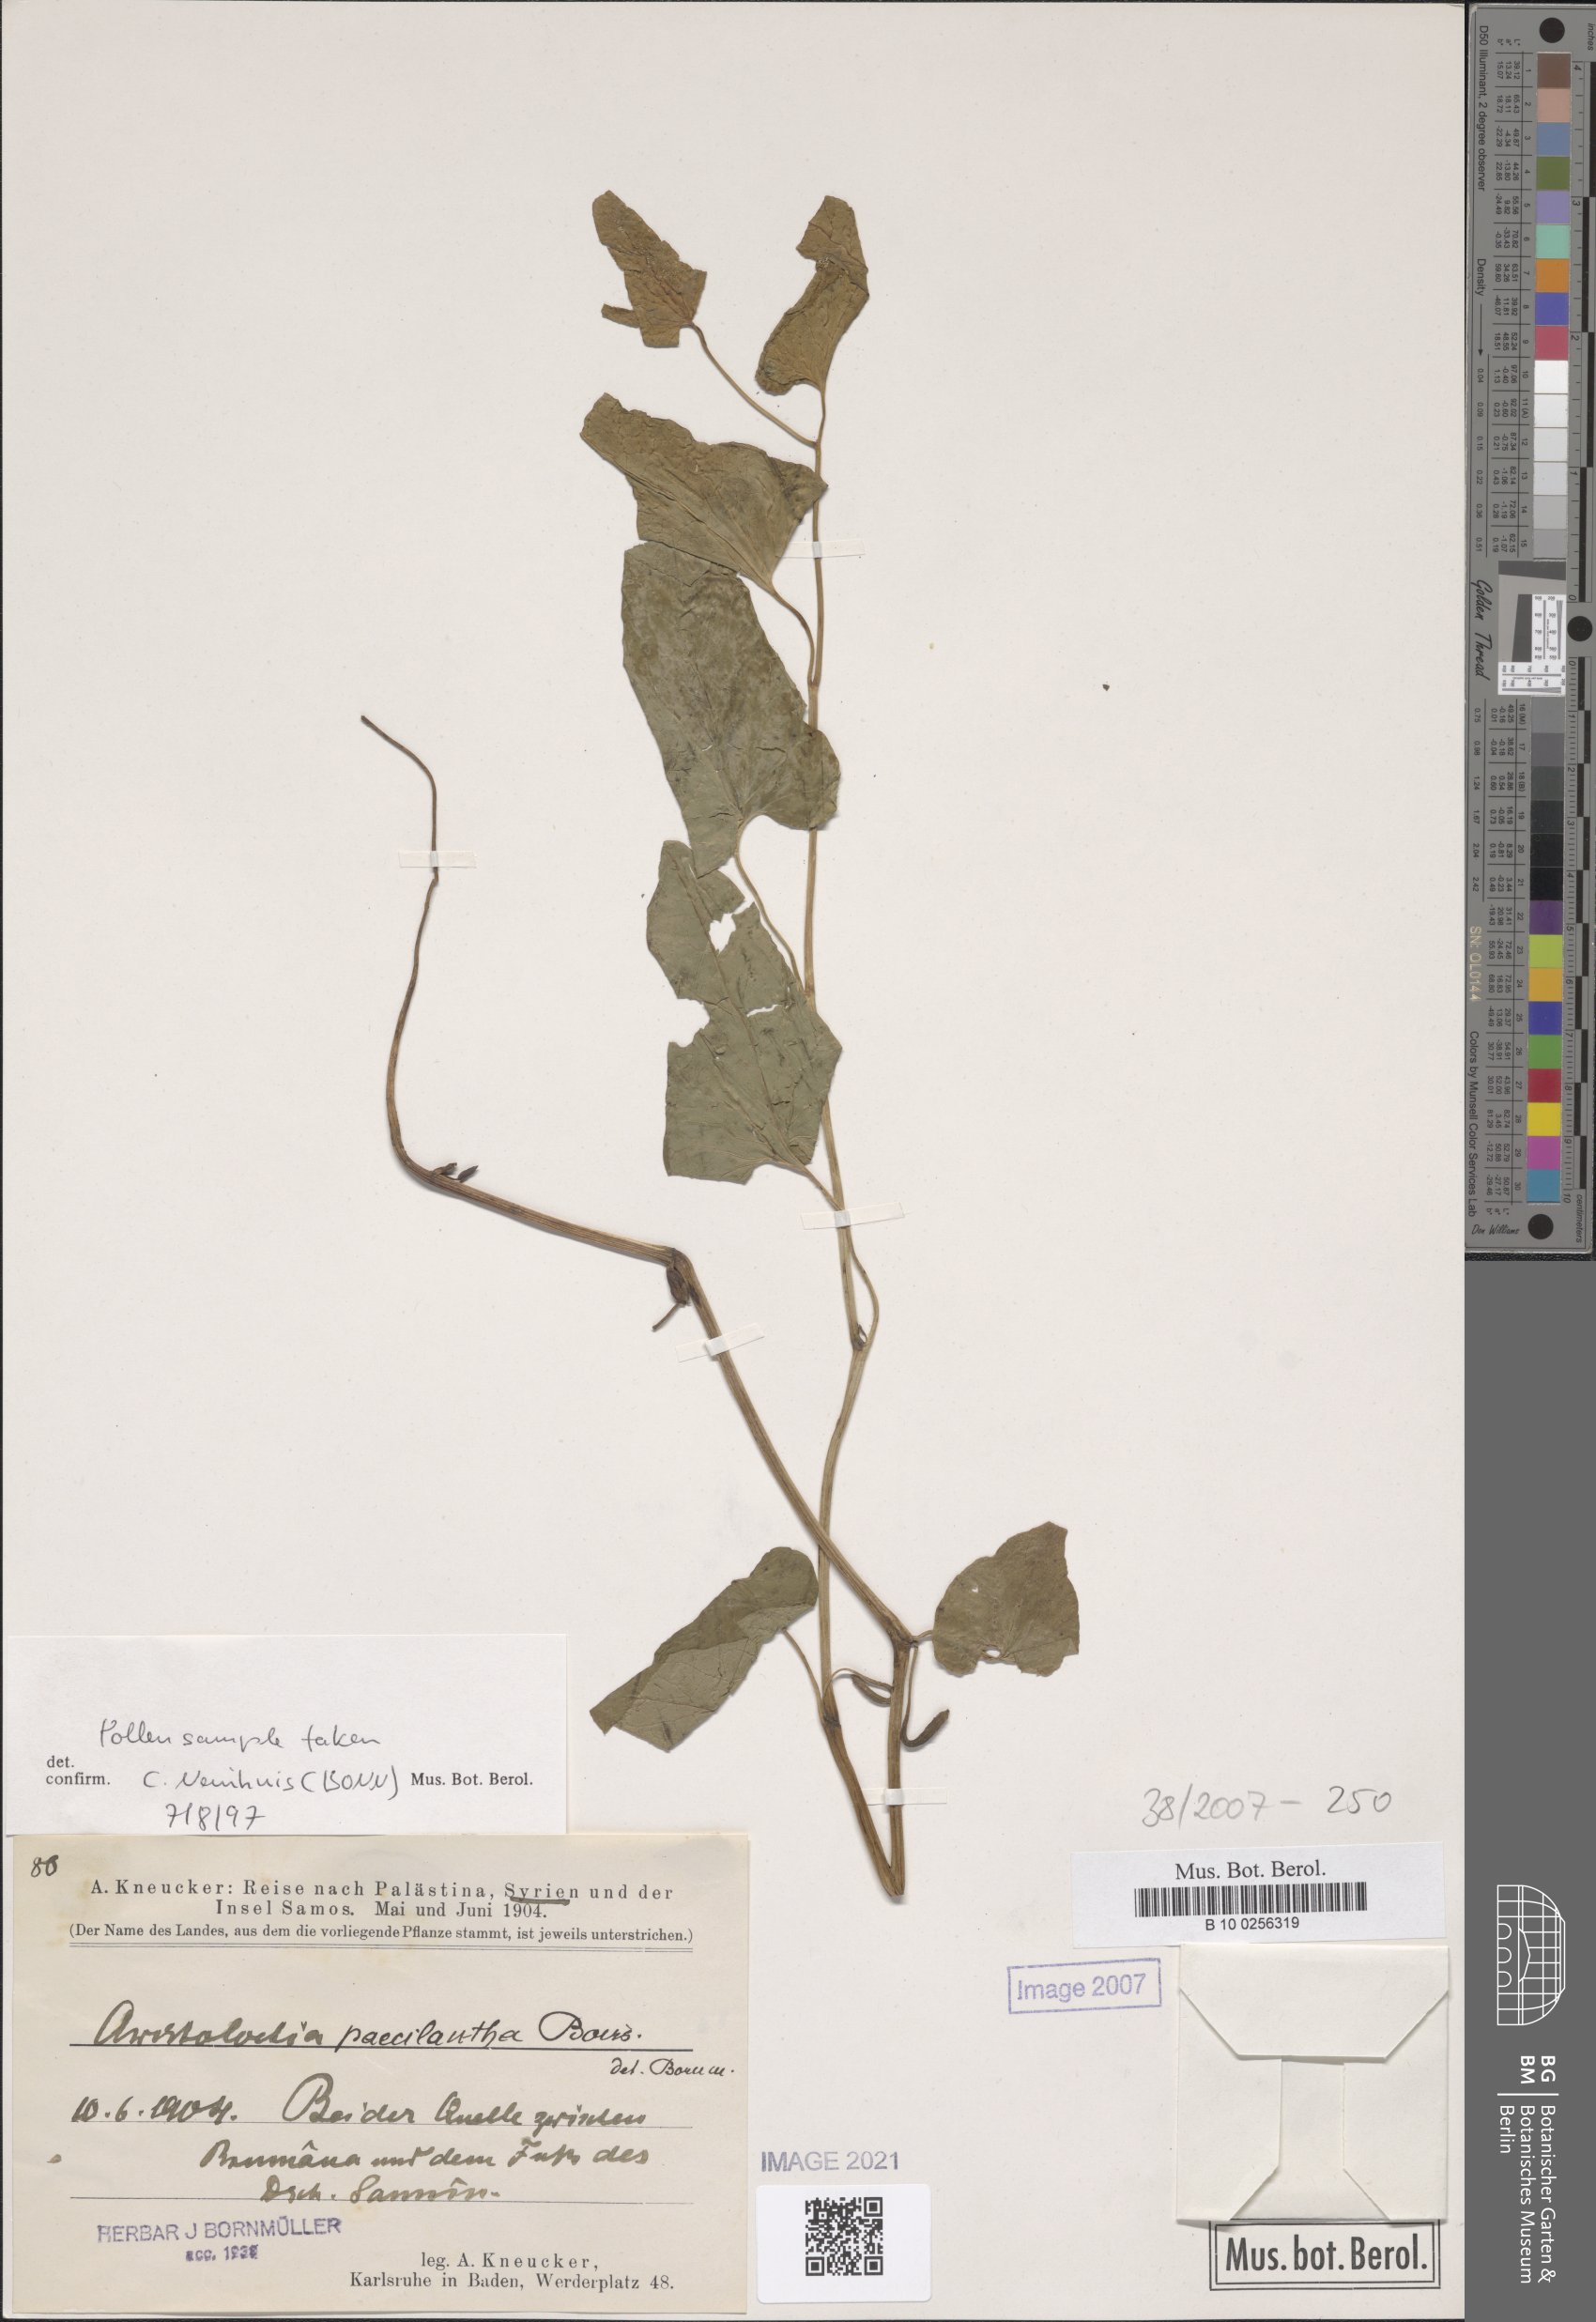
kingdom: Plantae
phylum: Tracheophyta
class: Magnoliopsida
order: Piperales
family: Aristolochiaceae
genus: Aristolochia
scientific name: Aristolochia paecilantha
